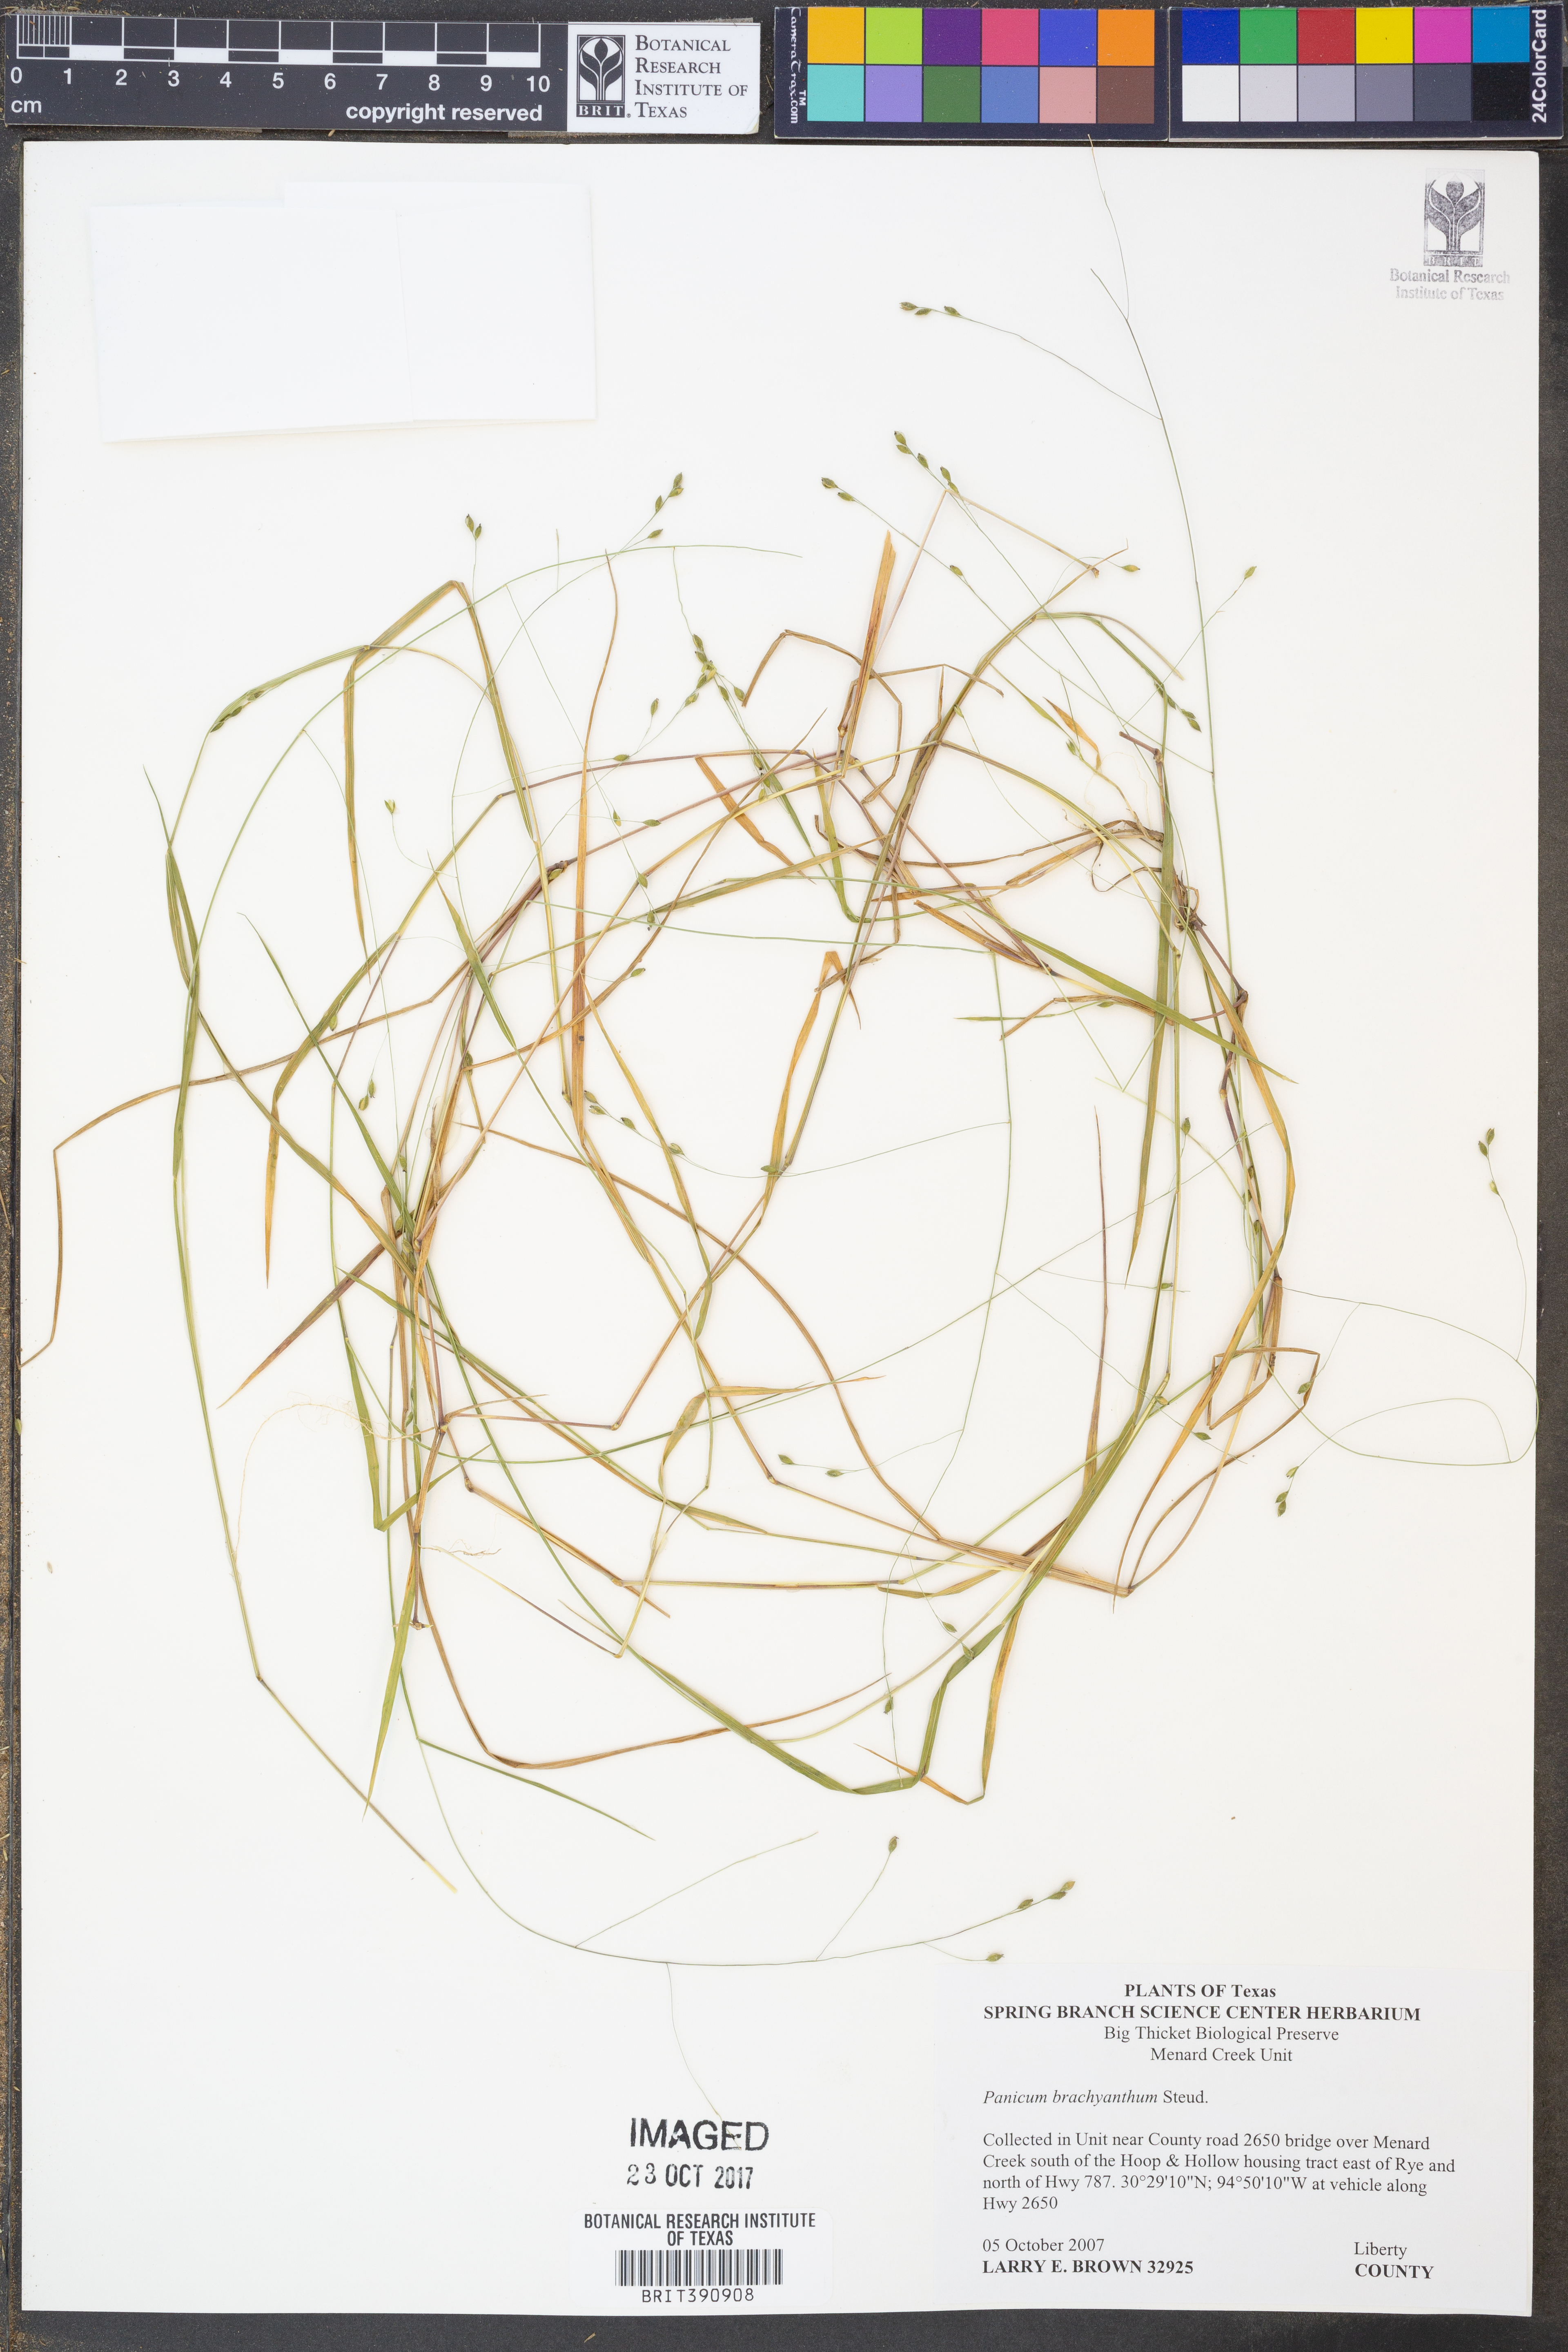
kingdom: Plantae
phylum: Tracheophyta
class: Liliopsida
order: Poales
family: Poaceae
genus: Kellochloa
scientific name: Kellochloa brachyantha
